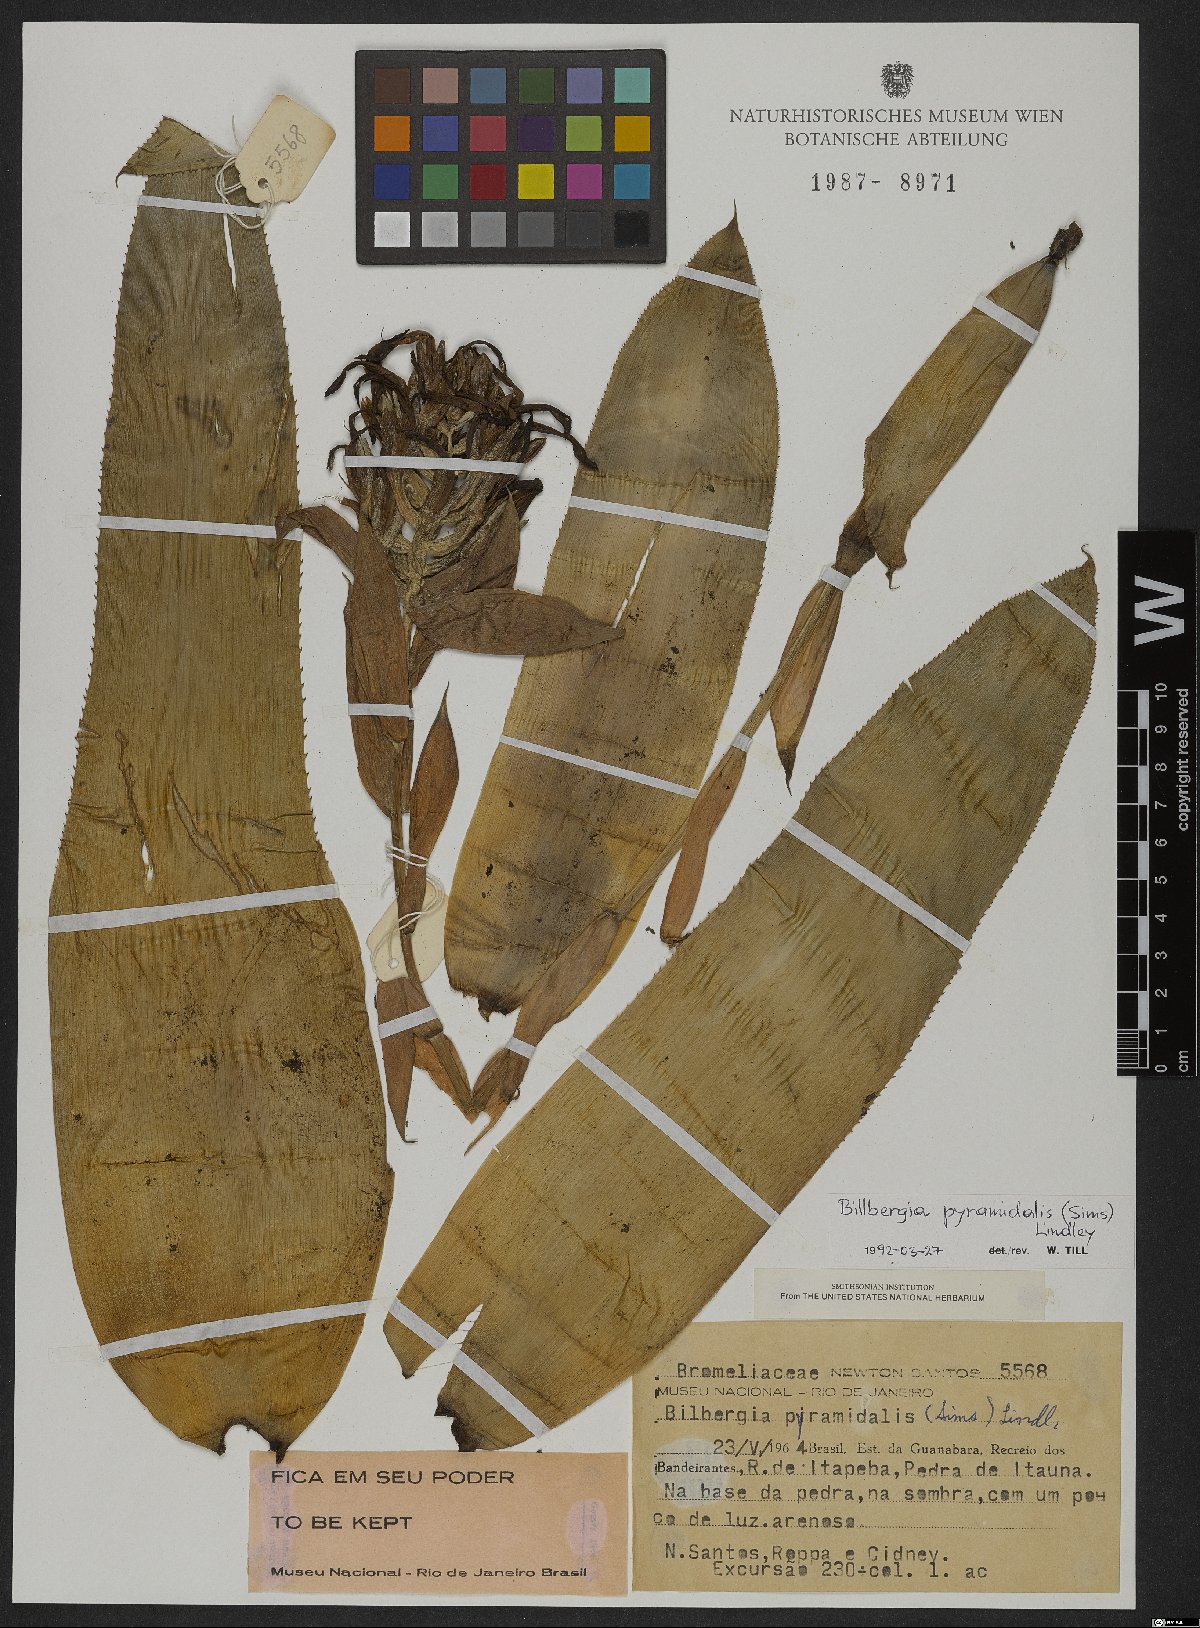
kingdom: Plantae
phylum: Tracheophyta
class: Liliopsida
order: Poales
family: Bromeliaceae
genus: Billbergia
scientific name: Billbergia pyramidalis
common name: Foolproofplant
